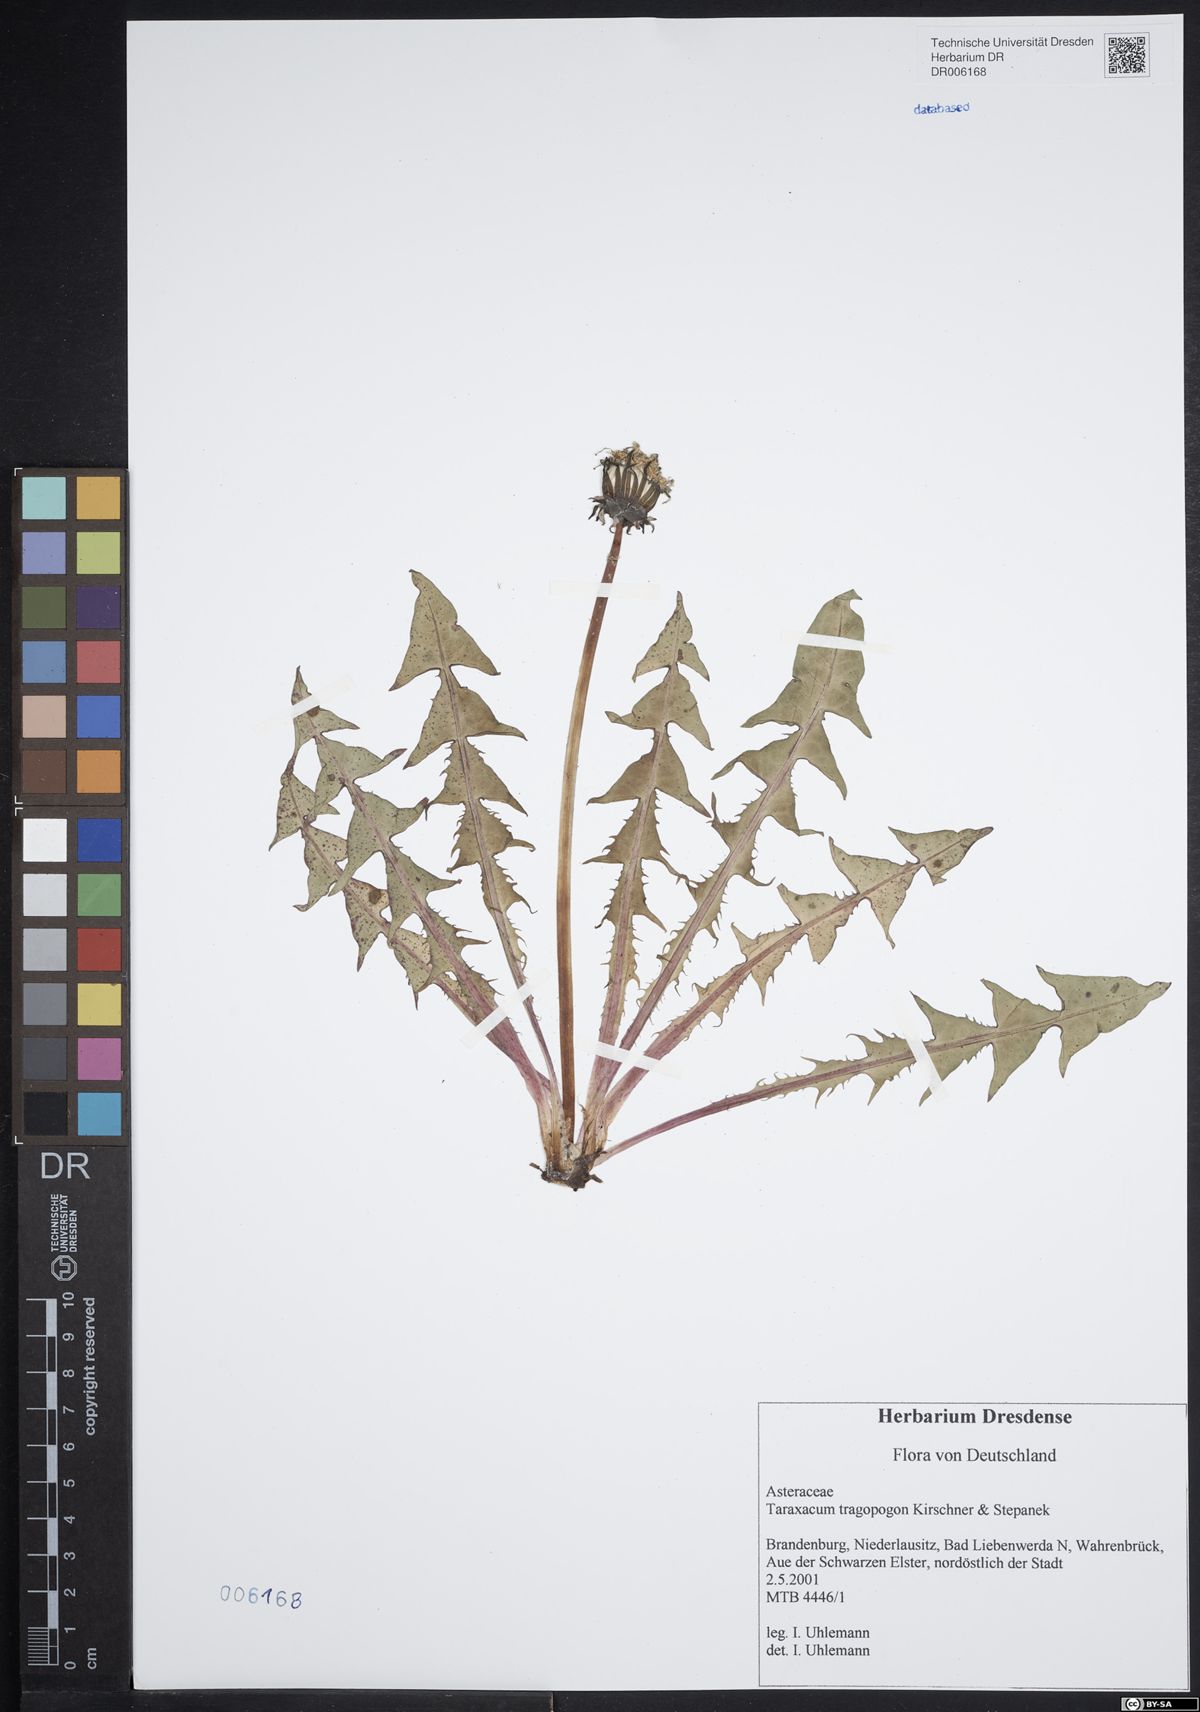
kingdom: Plantae
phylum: Tracheophyta
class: Magnoliopsida
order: Asterales
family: Asteraceae
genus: Taraxacum
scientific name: Taraxacum porrigentilobatum
